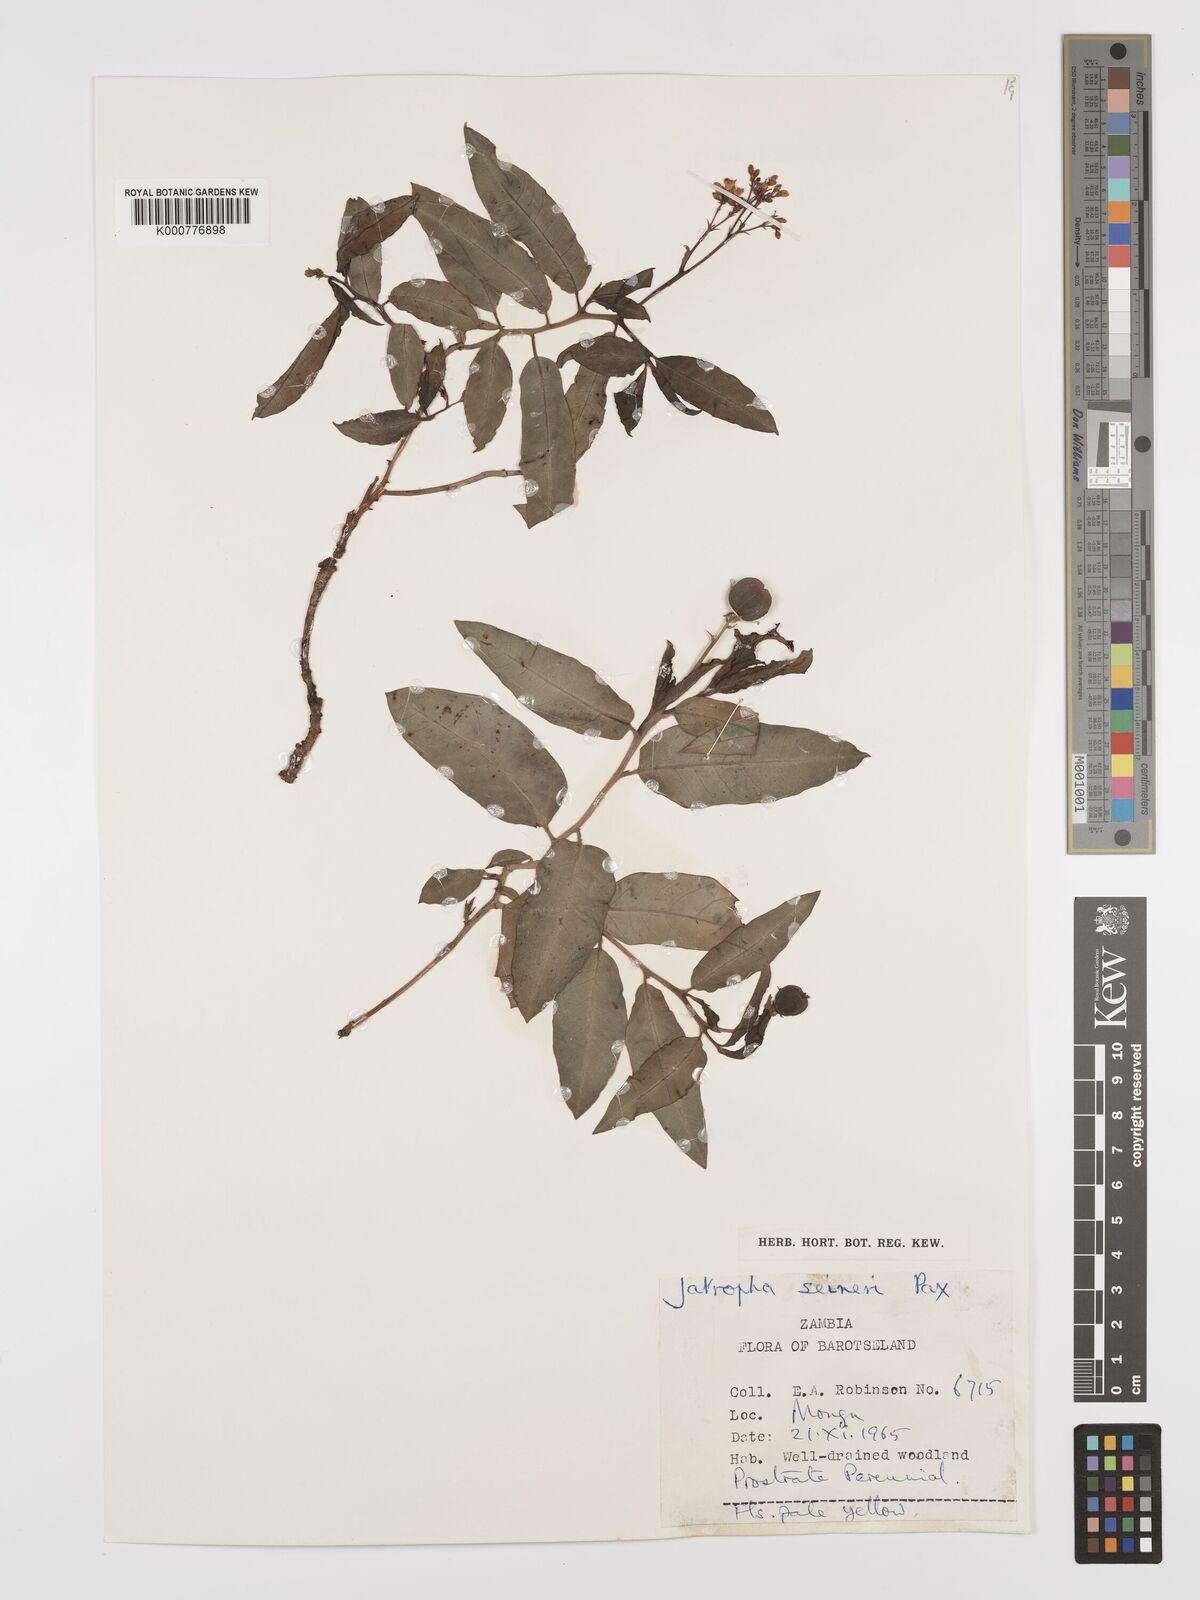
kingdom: Plantae
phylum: Tracheophyta
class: Magnoliopsida
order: Malpighiales
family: Euphorbiaceae
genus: Jatropha
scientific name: Jatropha seineri
